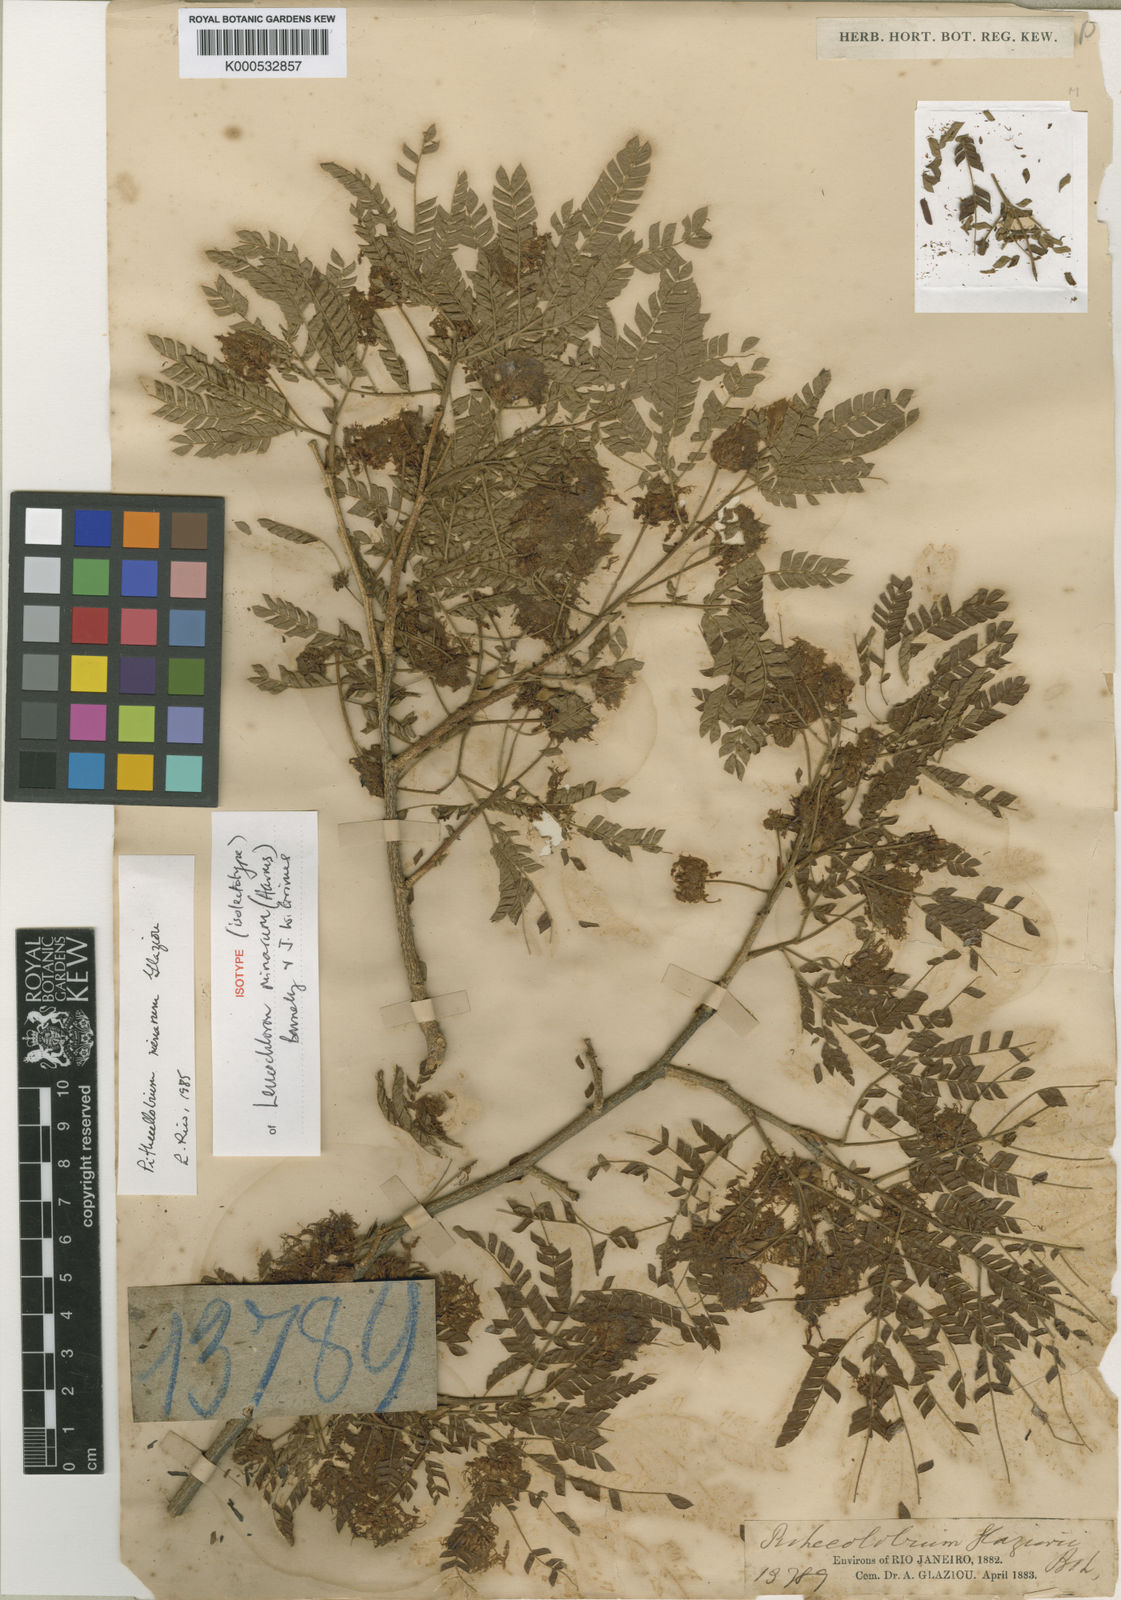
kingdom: Plantae
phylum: Tracheophyta
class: Magnoliopsida
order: Fabales
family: Fabaceae
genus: Leucochloron
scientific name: Leucochloron minarum
